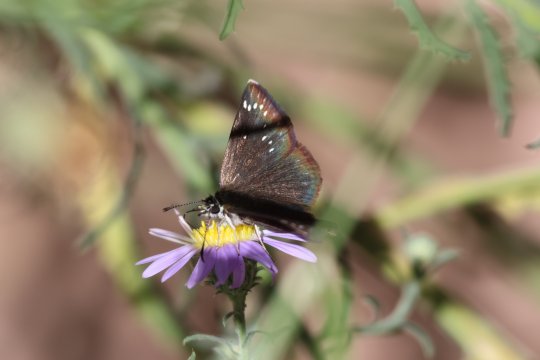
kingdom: Animalia
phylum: Arthropoda
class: Insecta
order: Lepidoptera
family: Hesperiidae
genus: Pholisora
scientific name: Pholisora catullus
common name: Common Sootywing
